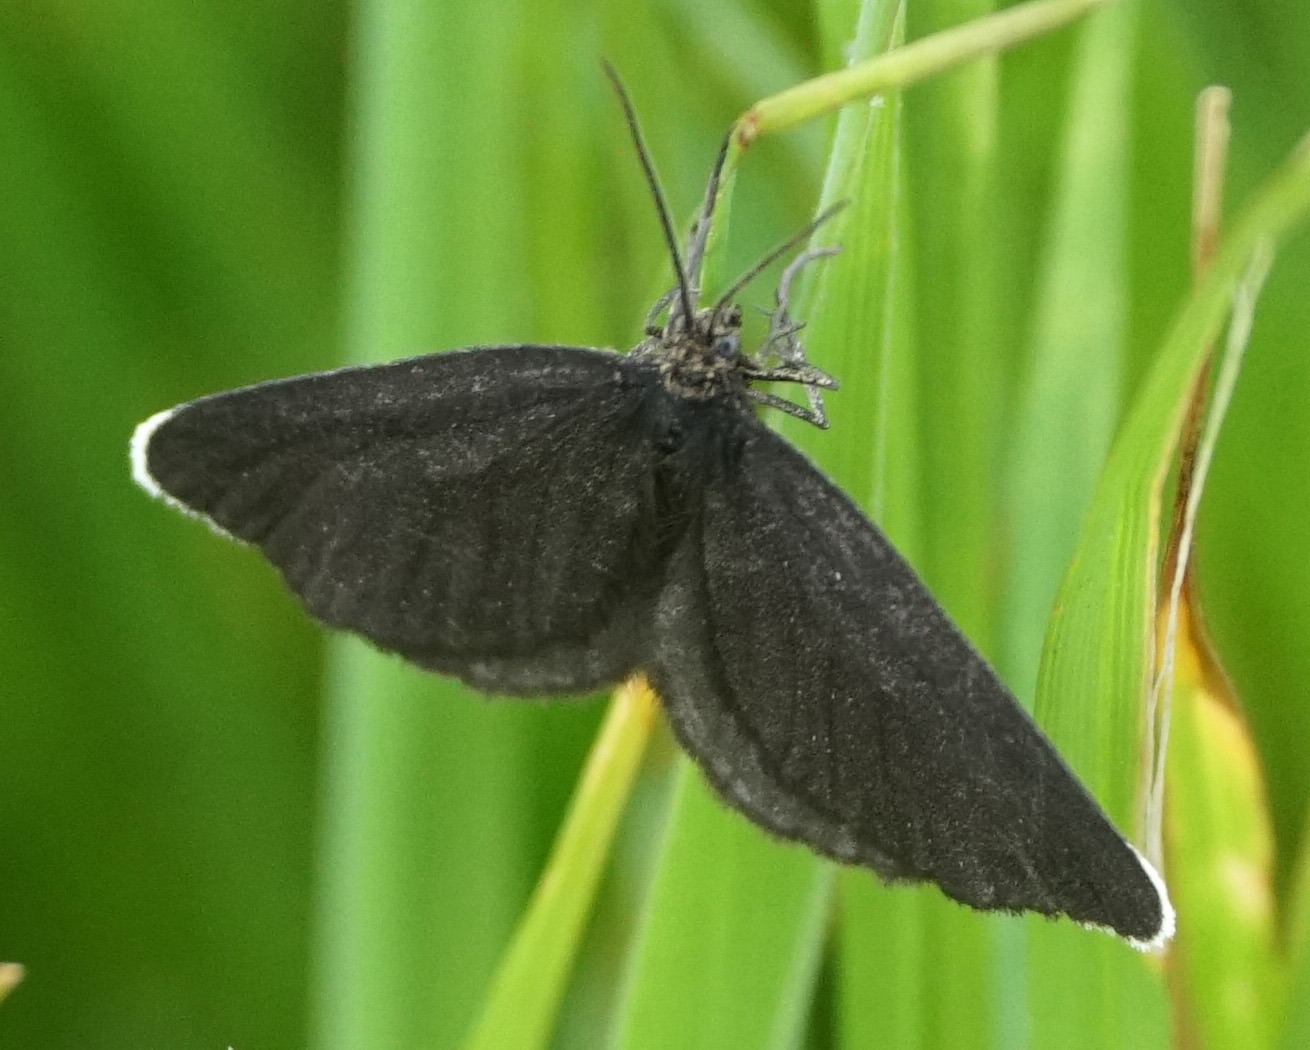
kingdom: Animalia
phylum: Arthropoda
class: Insecta
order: Lepidoptera
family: Geometridae
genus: Odezia
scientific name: Odezia atrata
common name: Sort måler
